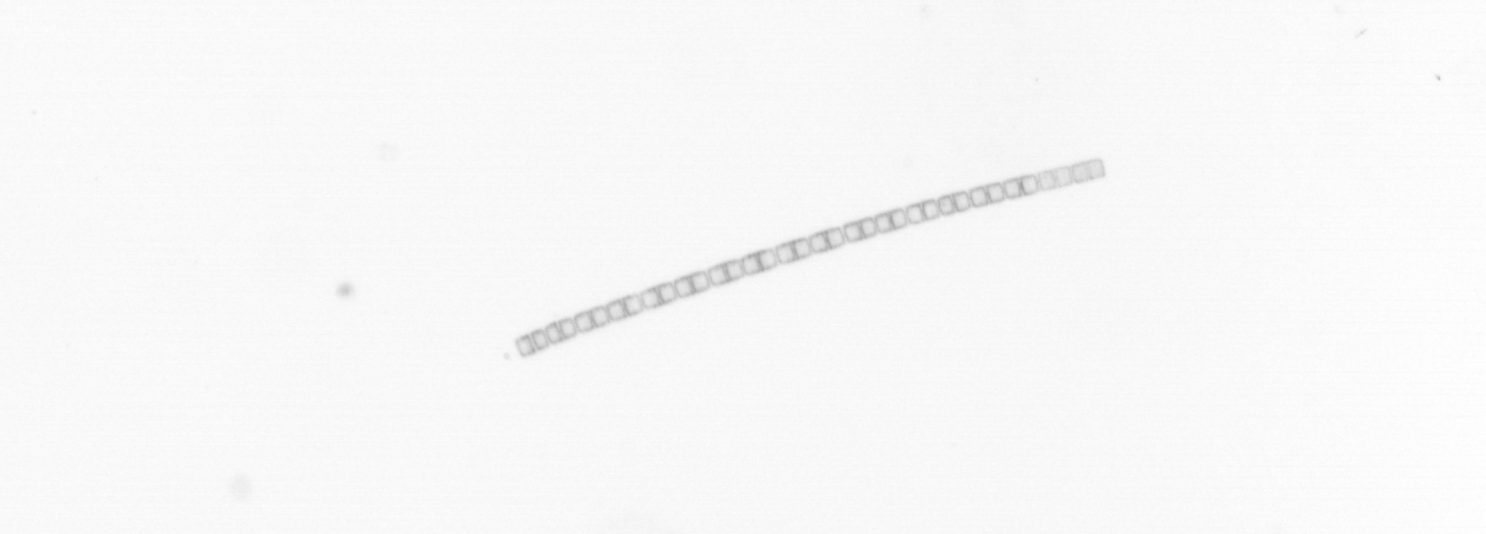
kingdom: Chromista
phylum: Ochrophyta
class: Bacillariophyceae
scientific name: Bacillariophyceae
